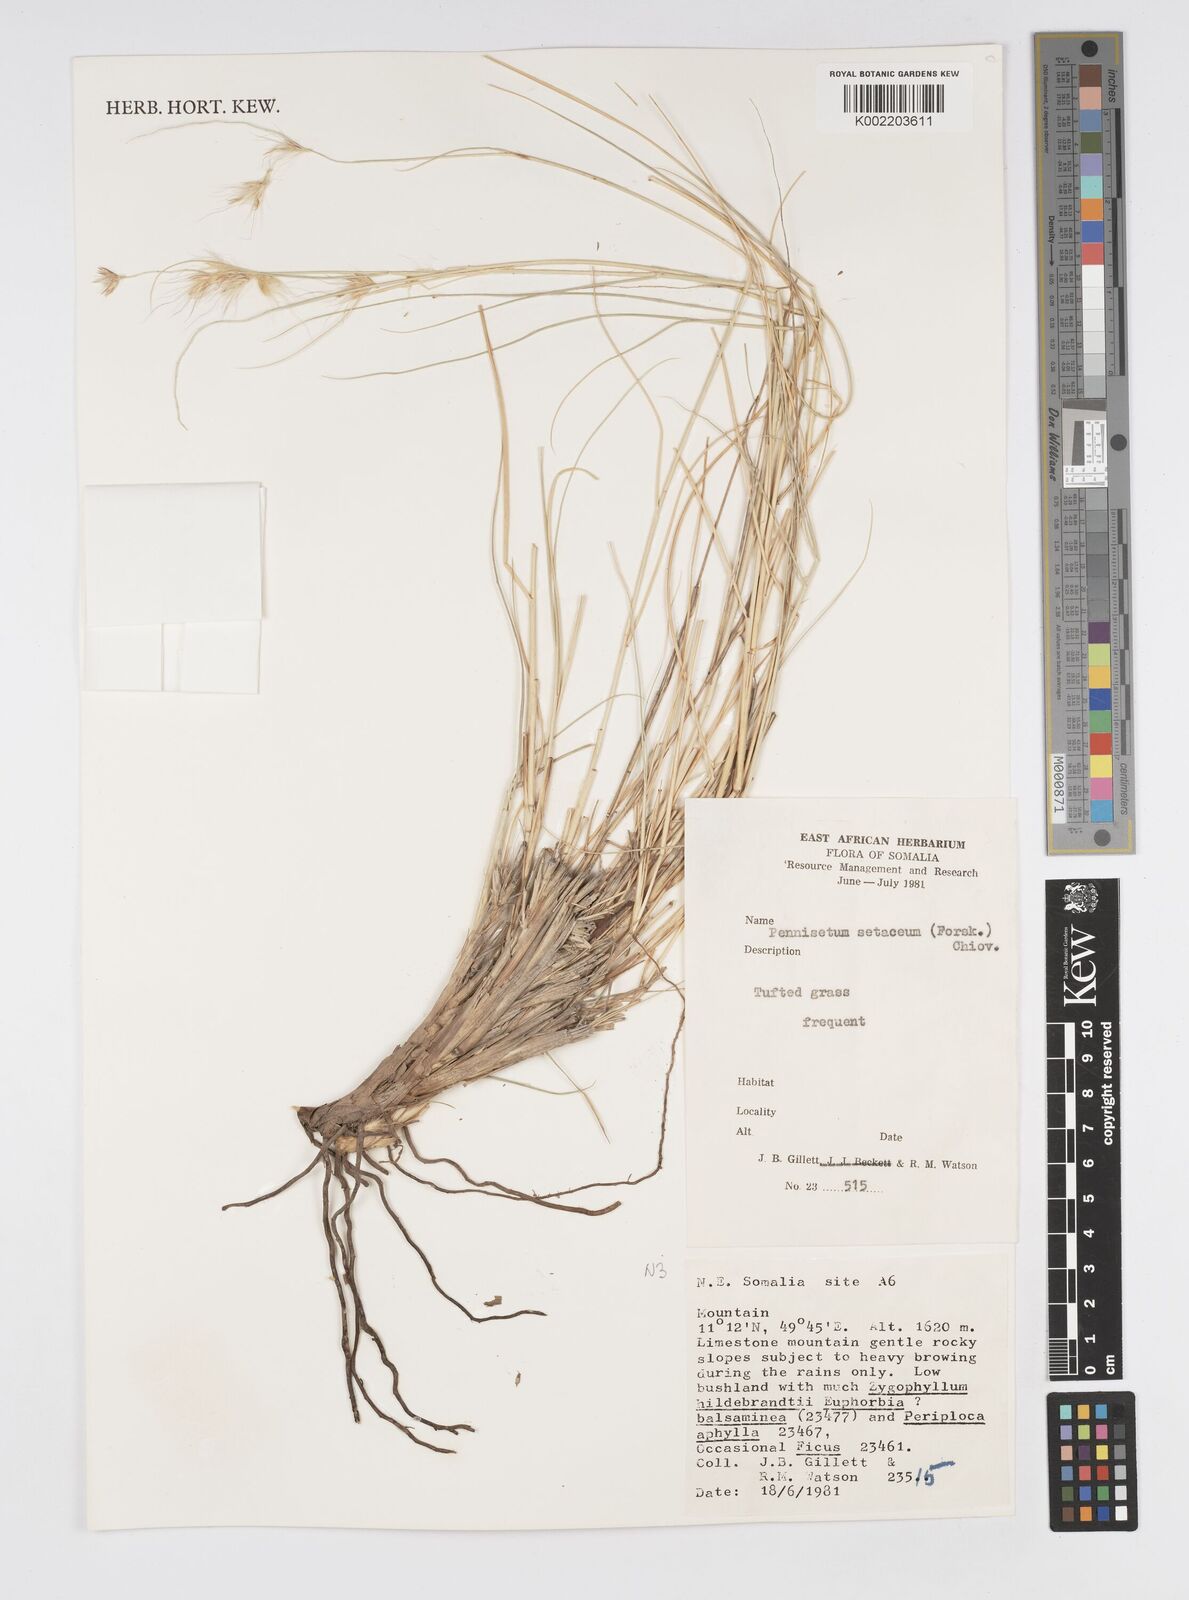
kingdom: Plantae
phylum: Tracheophyta
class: Liliopsida
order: Poales
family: Poaceae
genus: Cenchrus
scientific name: Cenchrus setaceus
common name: Crimson fountaingrass
